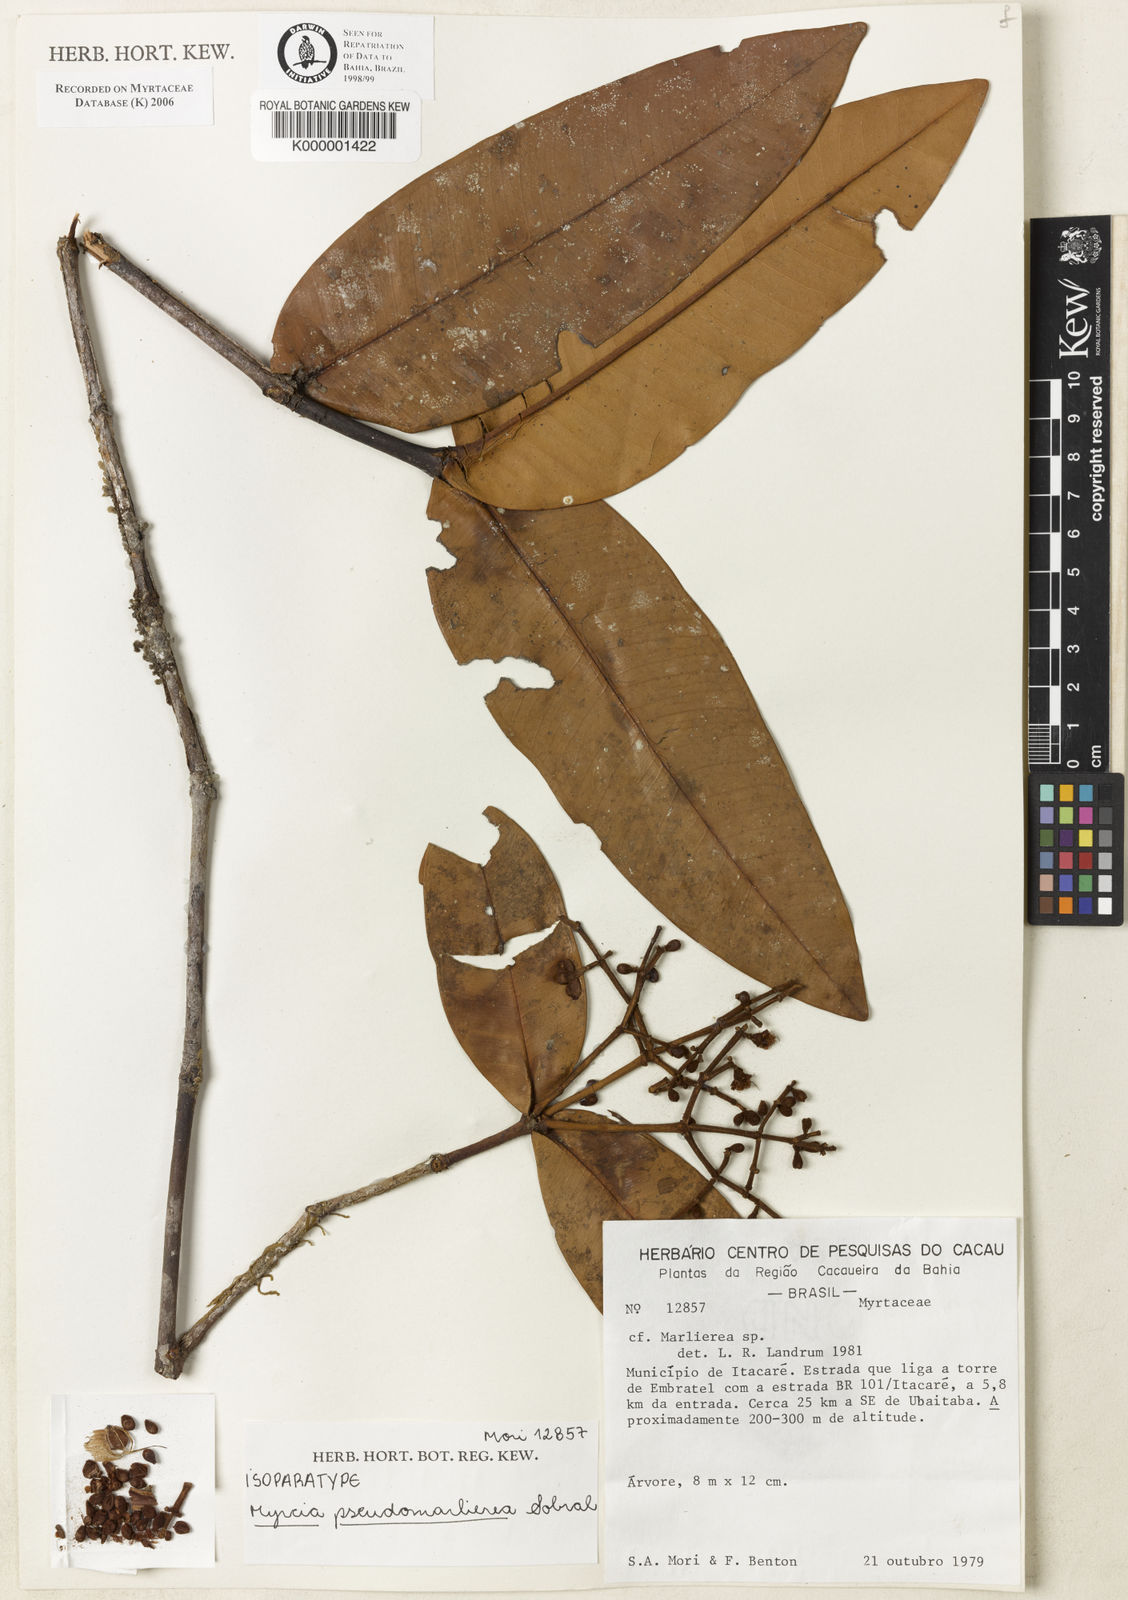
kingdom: Plantae
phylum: Tracheophyta
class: Magnoliopsida
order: Myrtales
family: Myrtaceae
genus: Myrcia
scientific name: Myrcia pseudomarlierea
